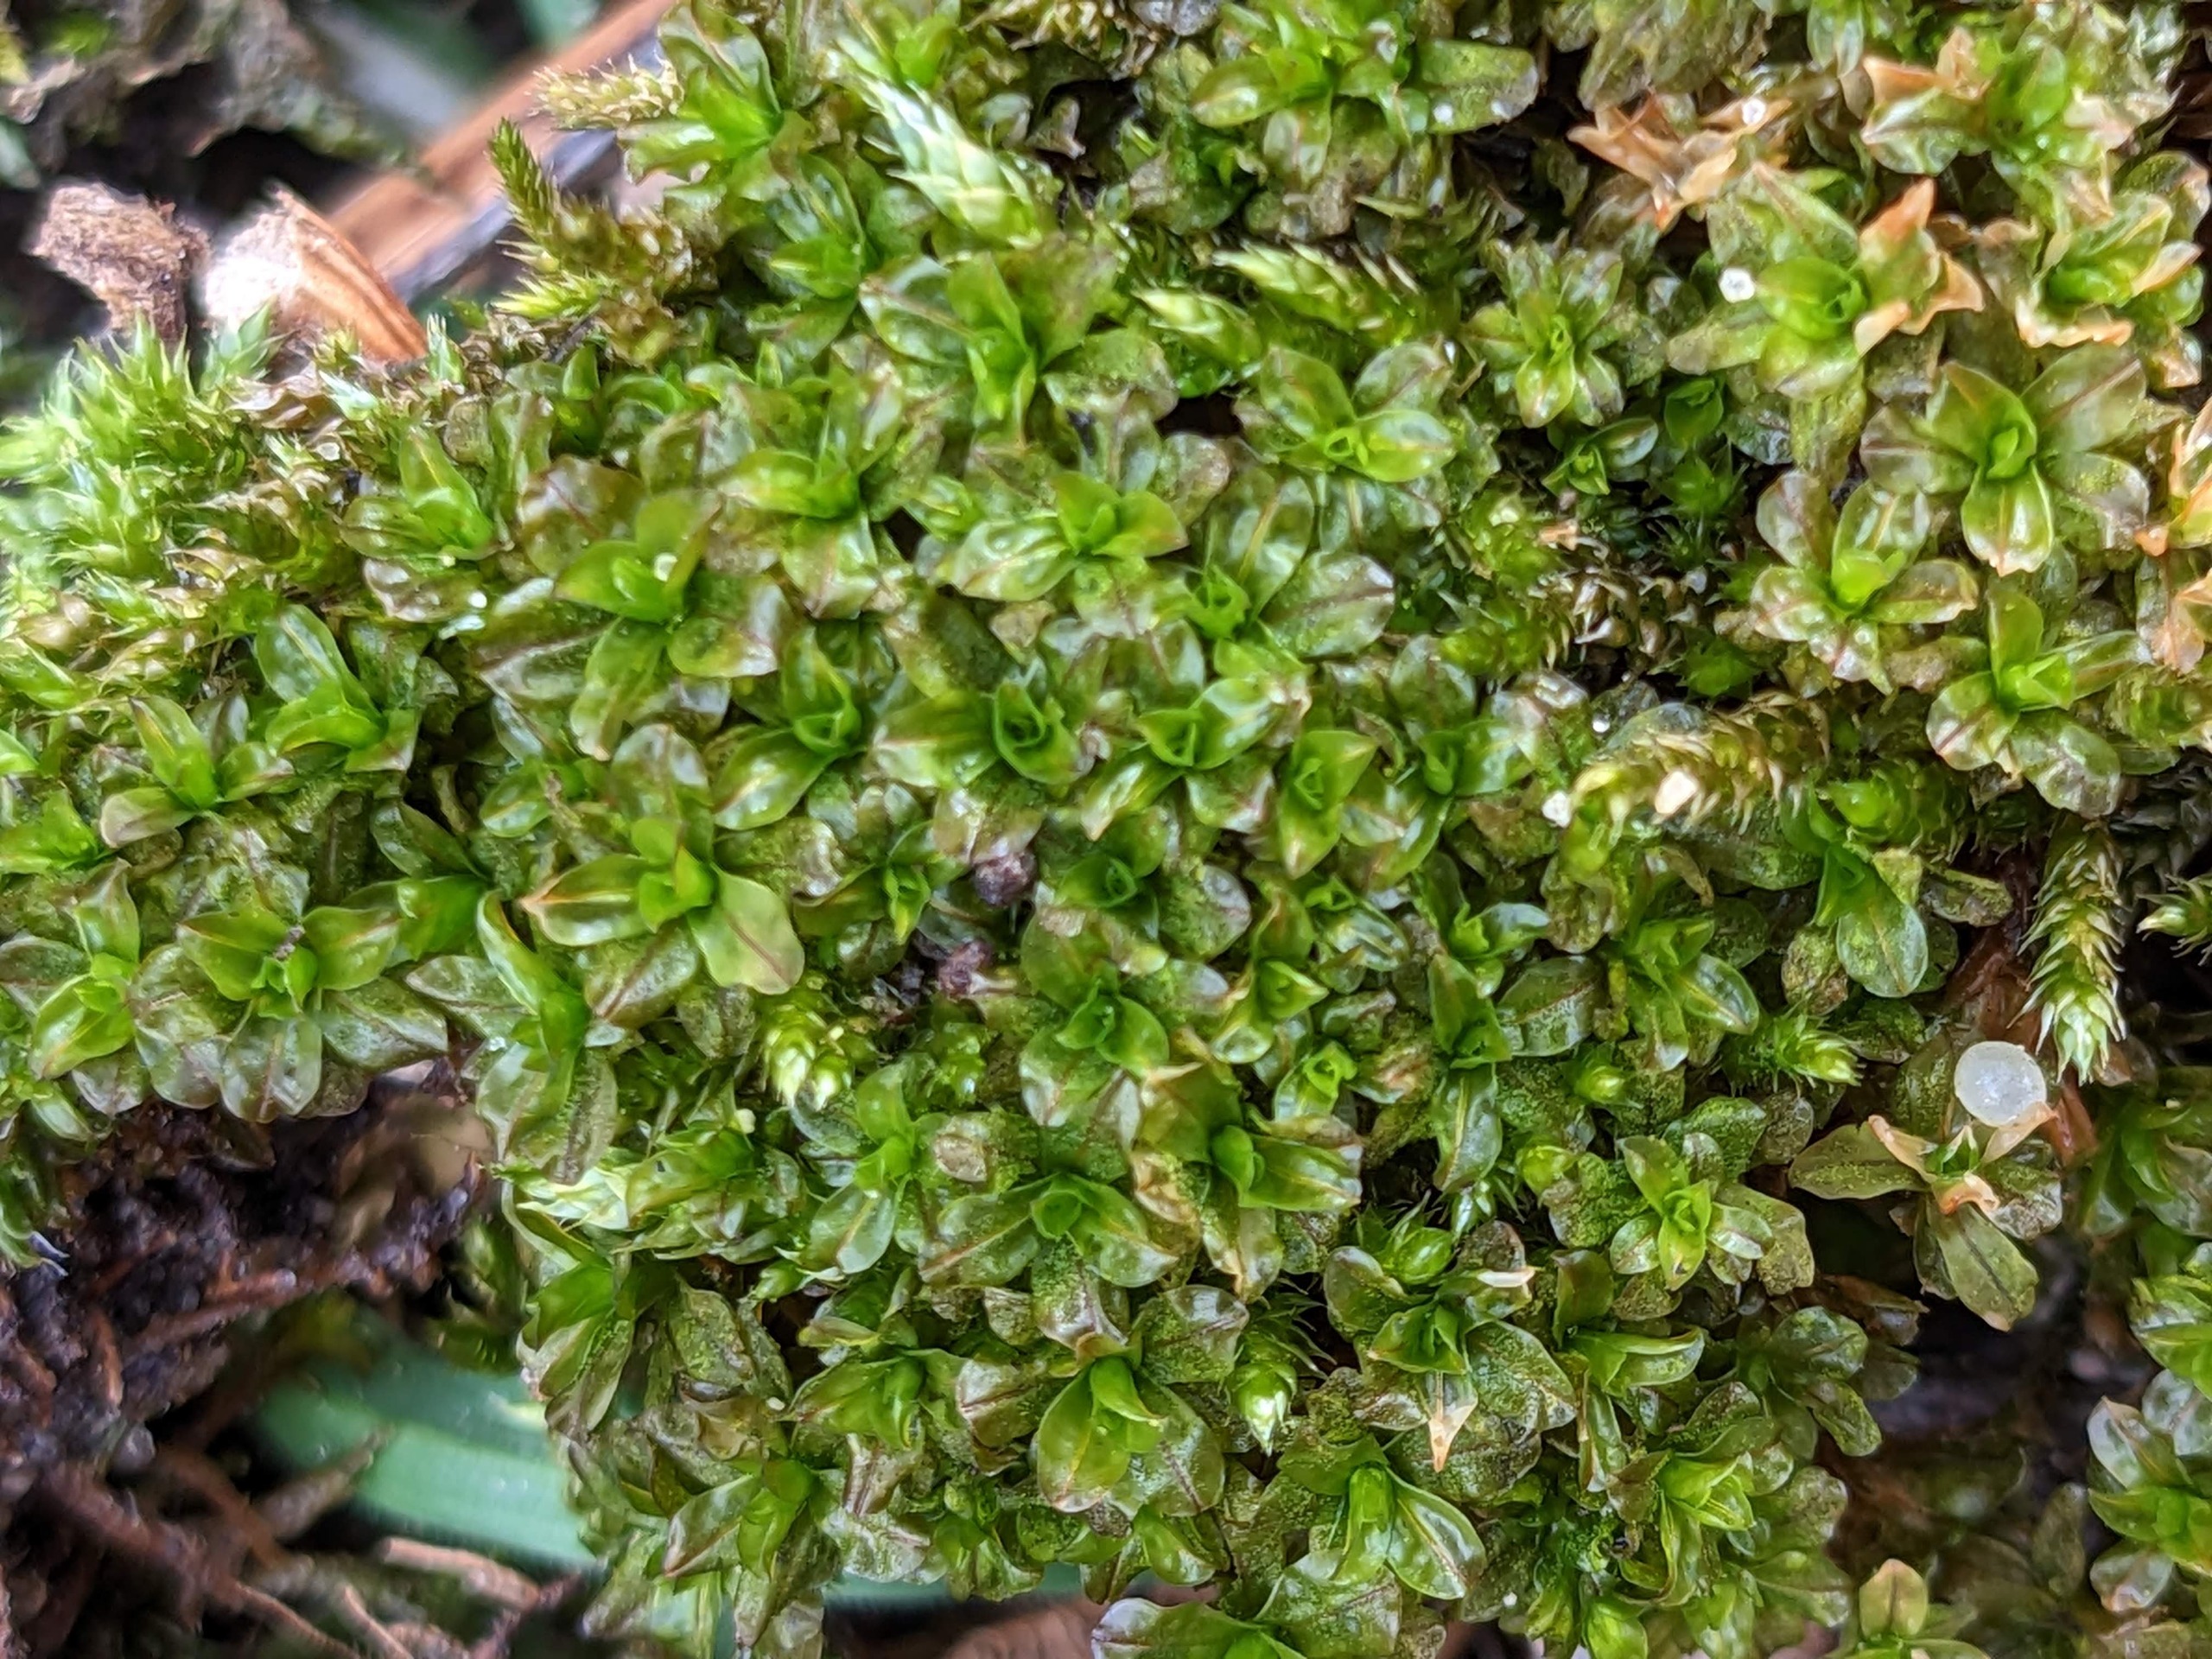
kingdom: Plantae
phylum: Bryophyta
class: Bryopsida
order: Pottiales
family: Pottiaceae
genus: Syntrichia
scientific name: Syntrichia latifolia
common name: Butbladet hårstjerne
